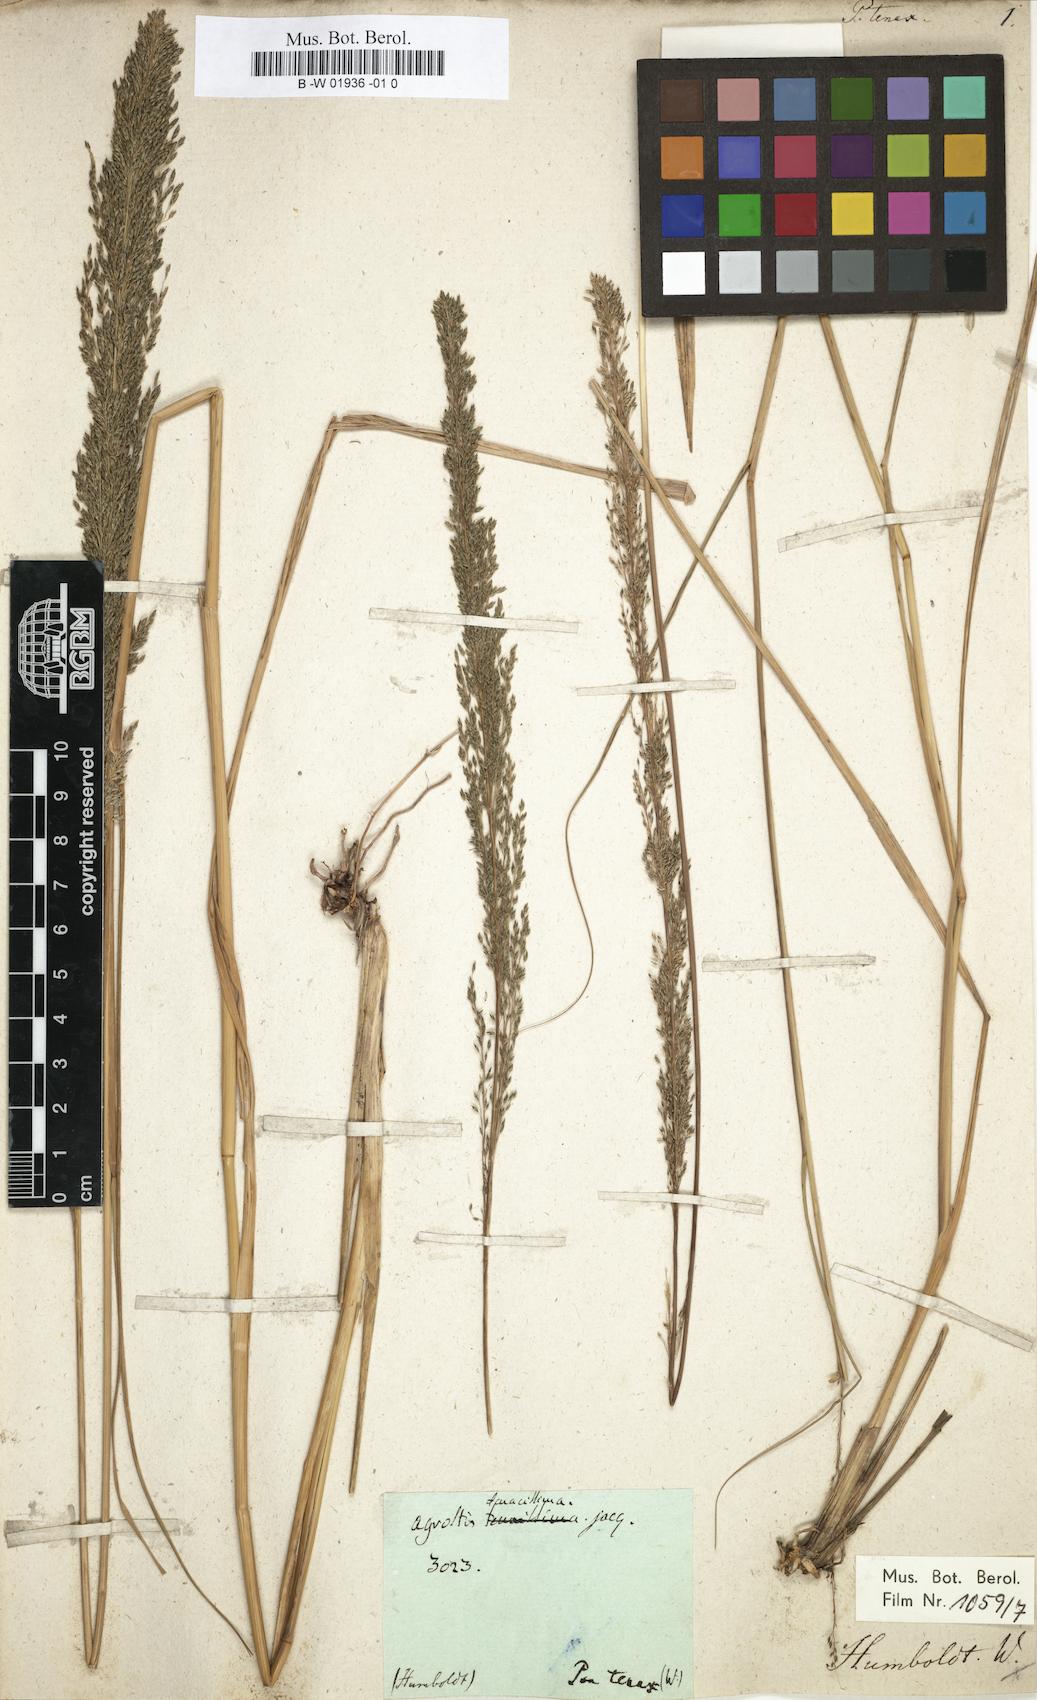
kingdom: Plantae
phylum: Tracheophyta
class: Liliopsida
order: Poales
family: Poaceae
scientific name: Poaceae
